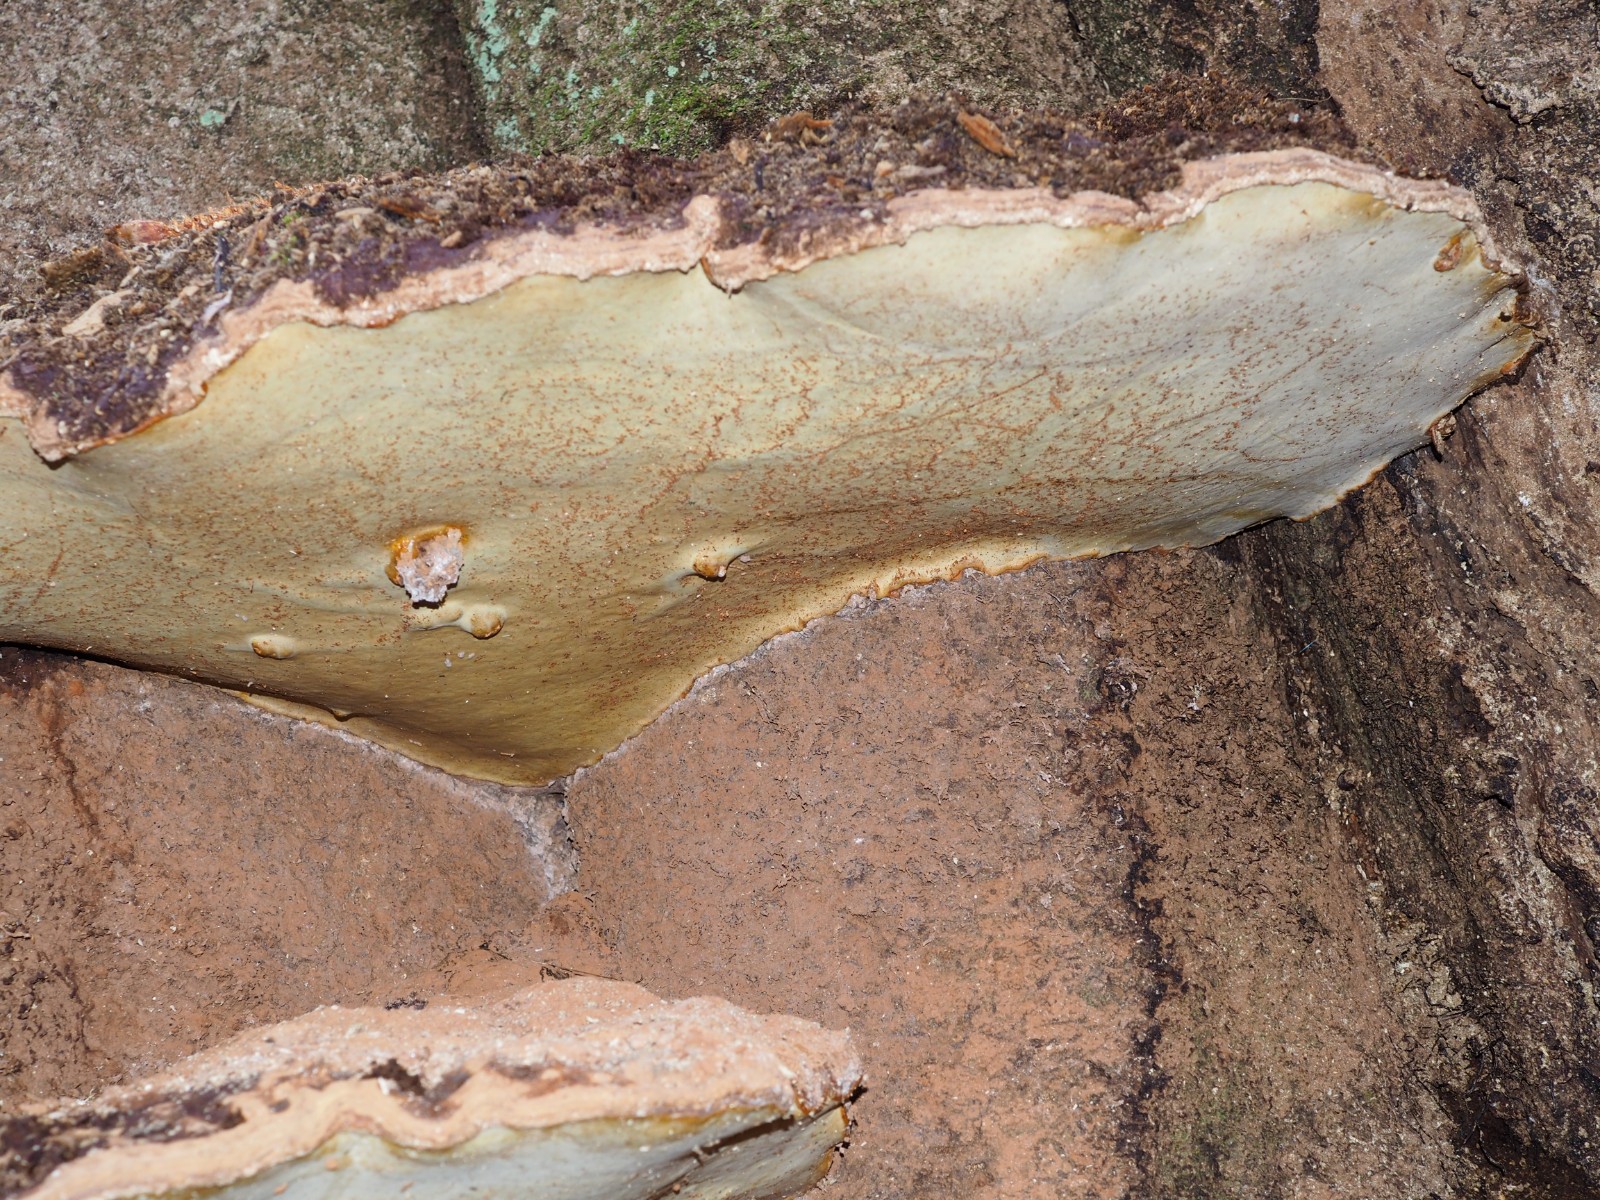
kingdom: Fungi
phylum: Basidiomycota
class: Agaricomycetes
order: Polyporales
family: Polyporaceae
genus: Ganoderma
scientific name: Ganoderma pfeifferi
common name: kobberrød lakporesvamp
